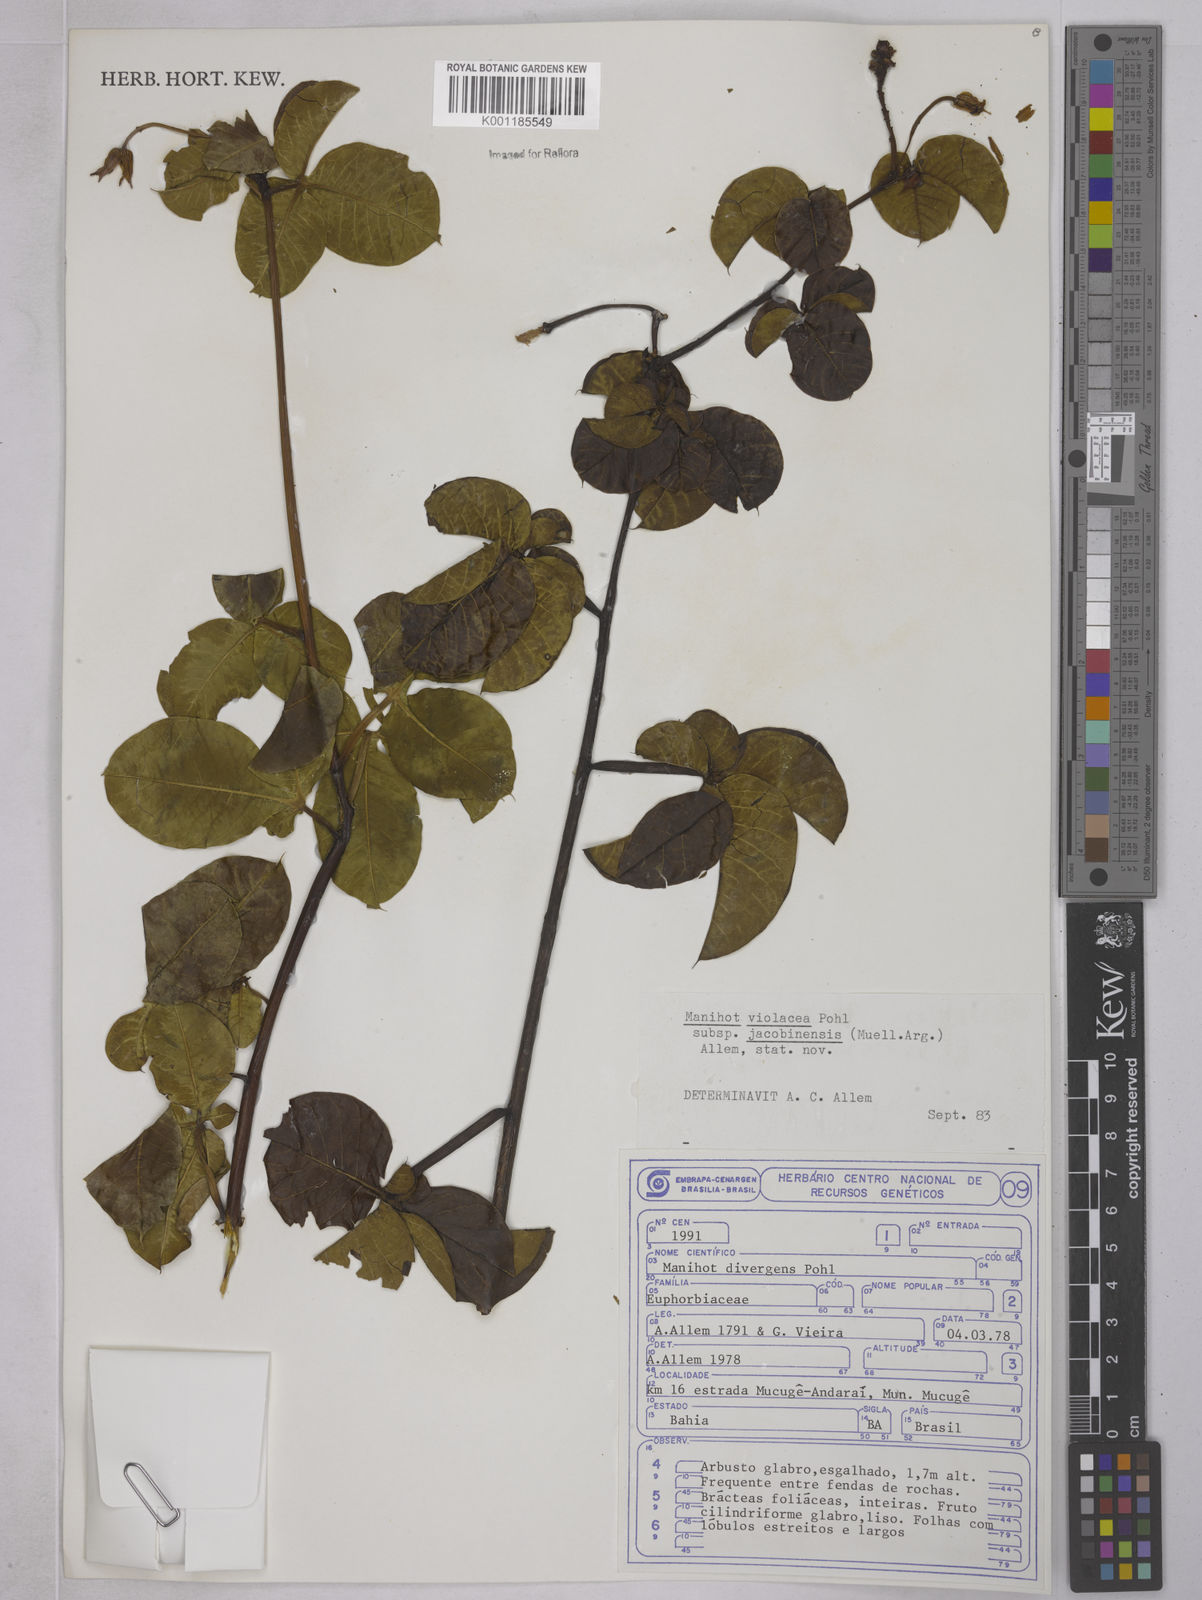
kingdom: Plantae
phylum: Tracheophyta
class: Magnoliopsida
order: Malpighiales
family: Euphorbiaceae
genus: Manihot
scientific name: Manihot
